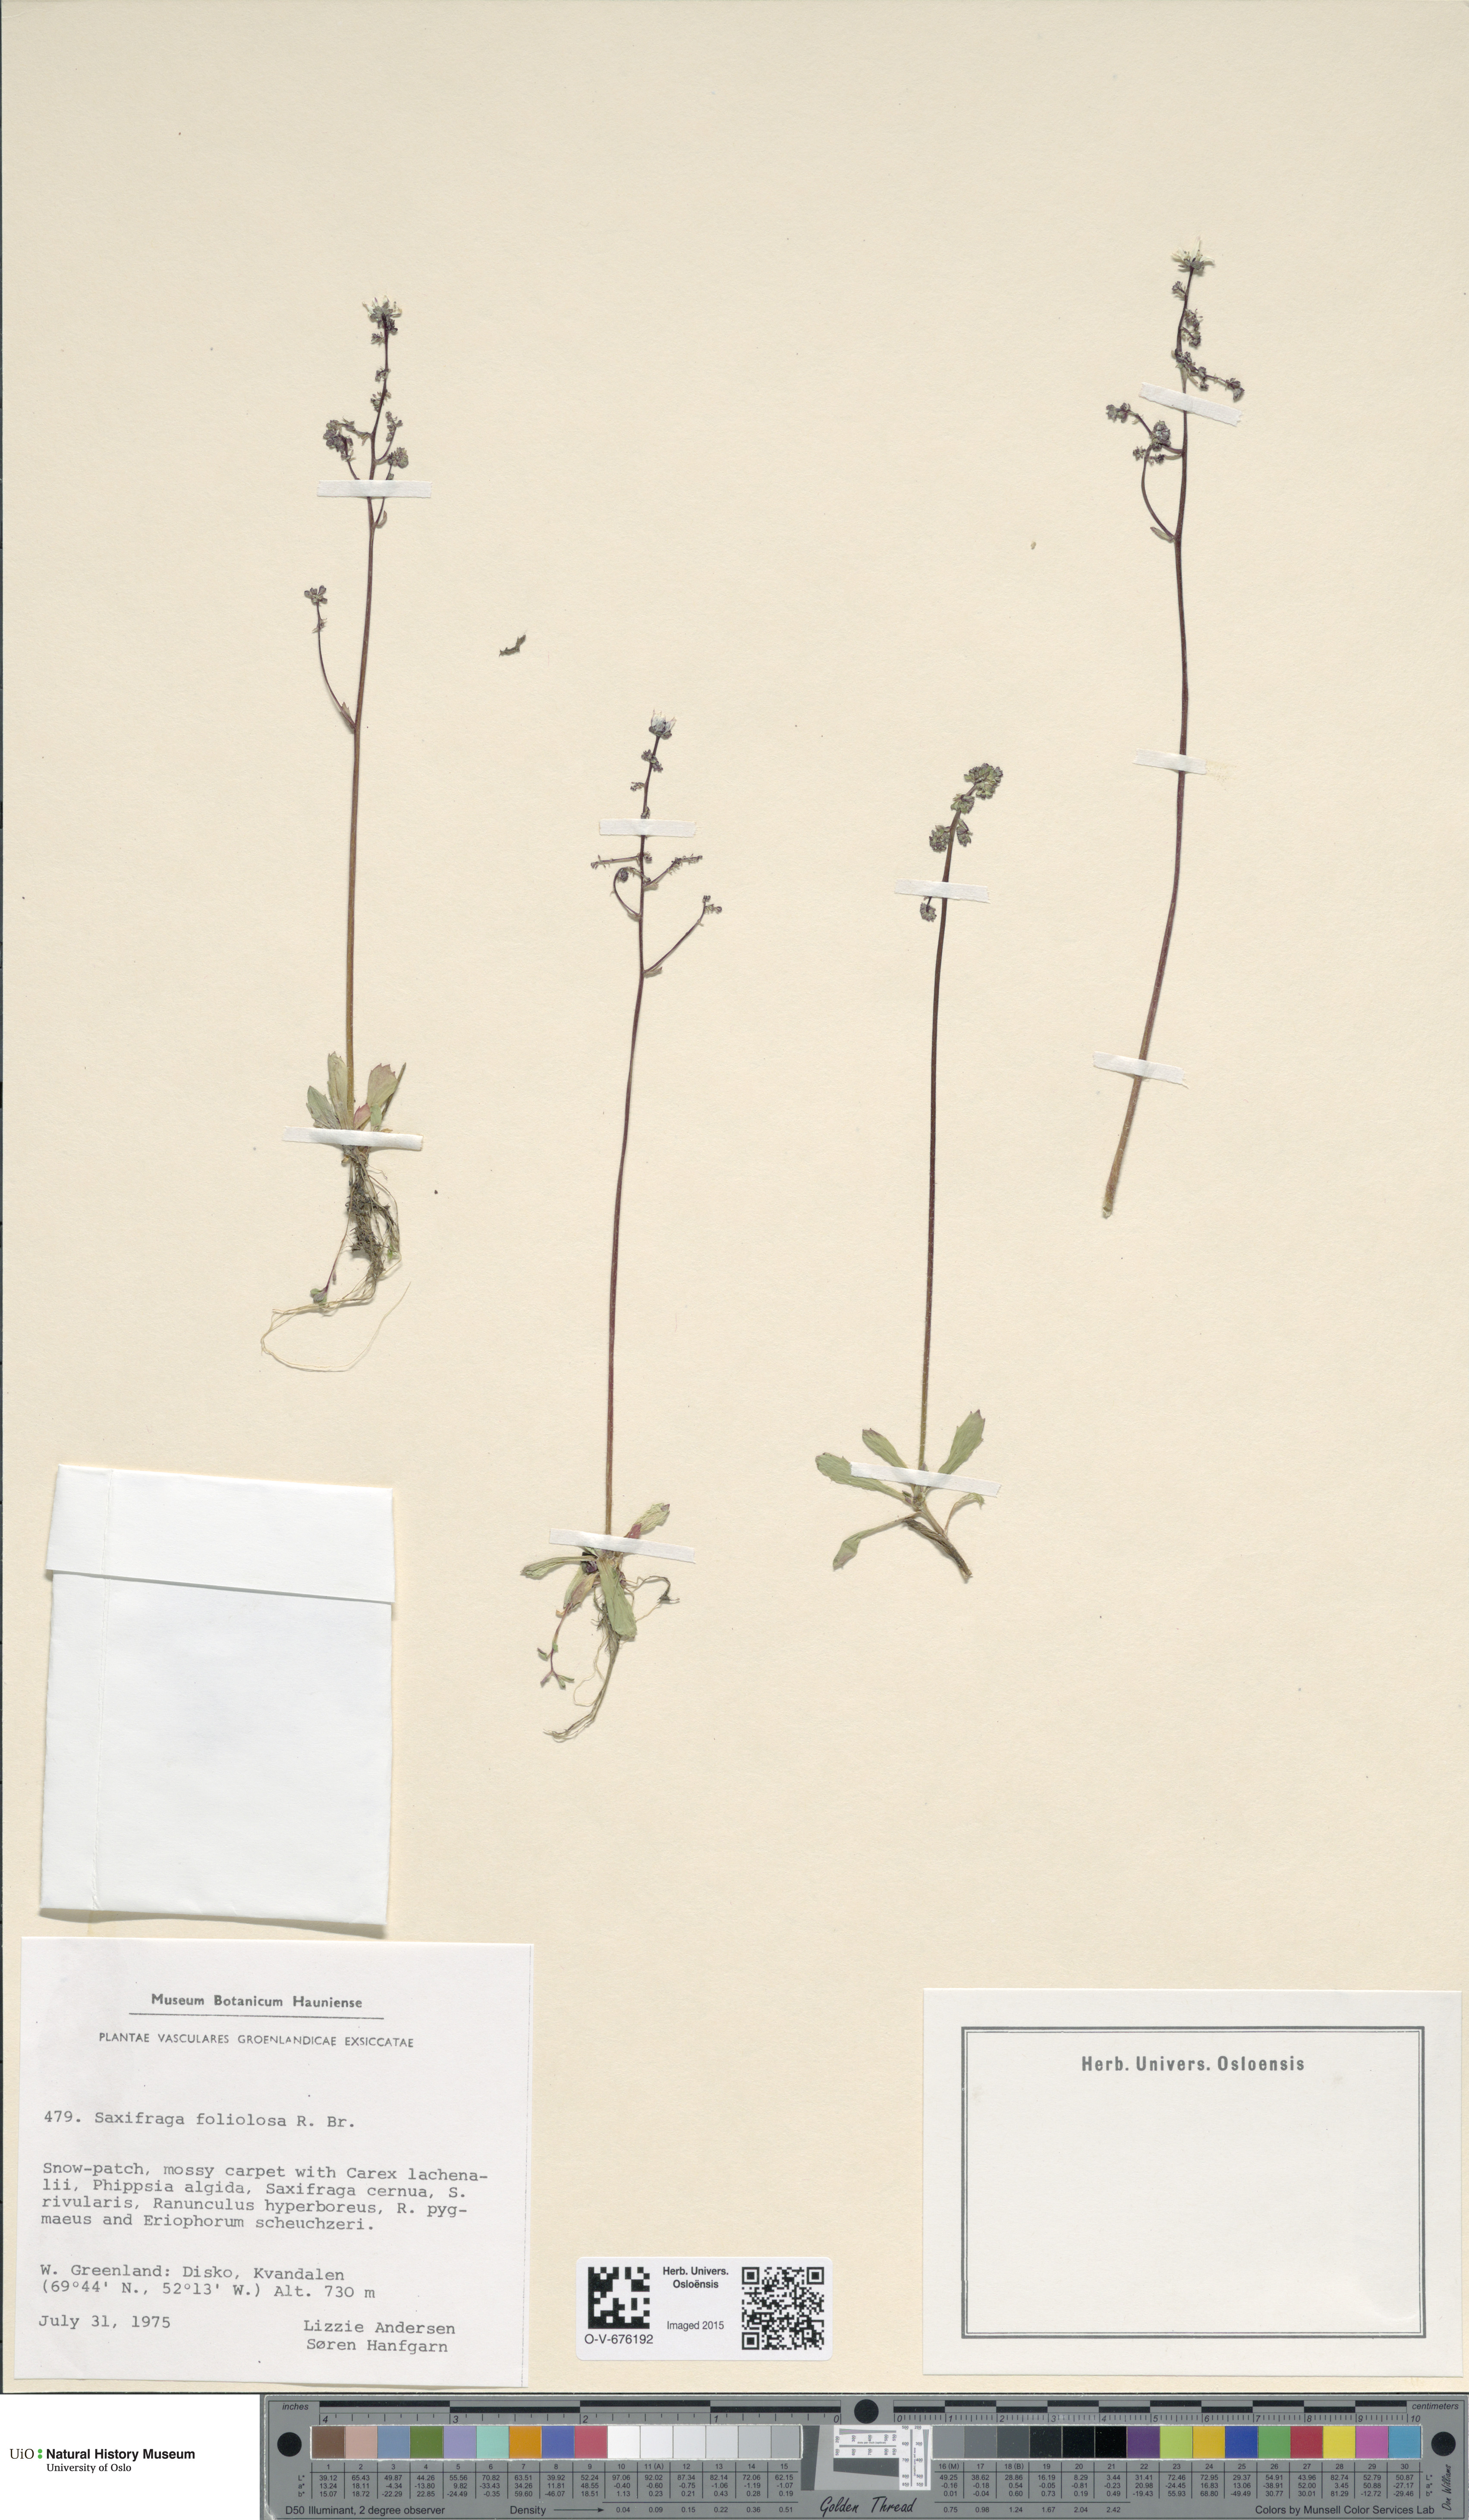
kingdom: Plantae
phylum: Tracheophyta
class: Magnoliopsida
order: Saxifragales
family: Saxifragaceae
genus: Micranthes
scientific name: Micranthes foliolosa
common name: Leafystem saxifrage
